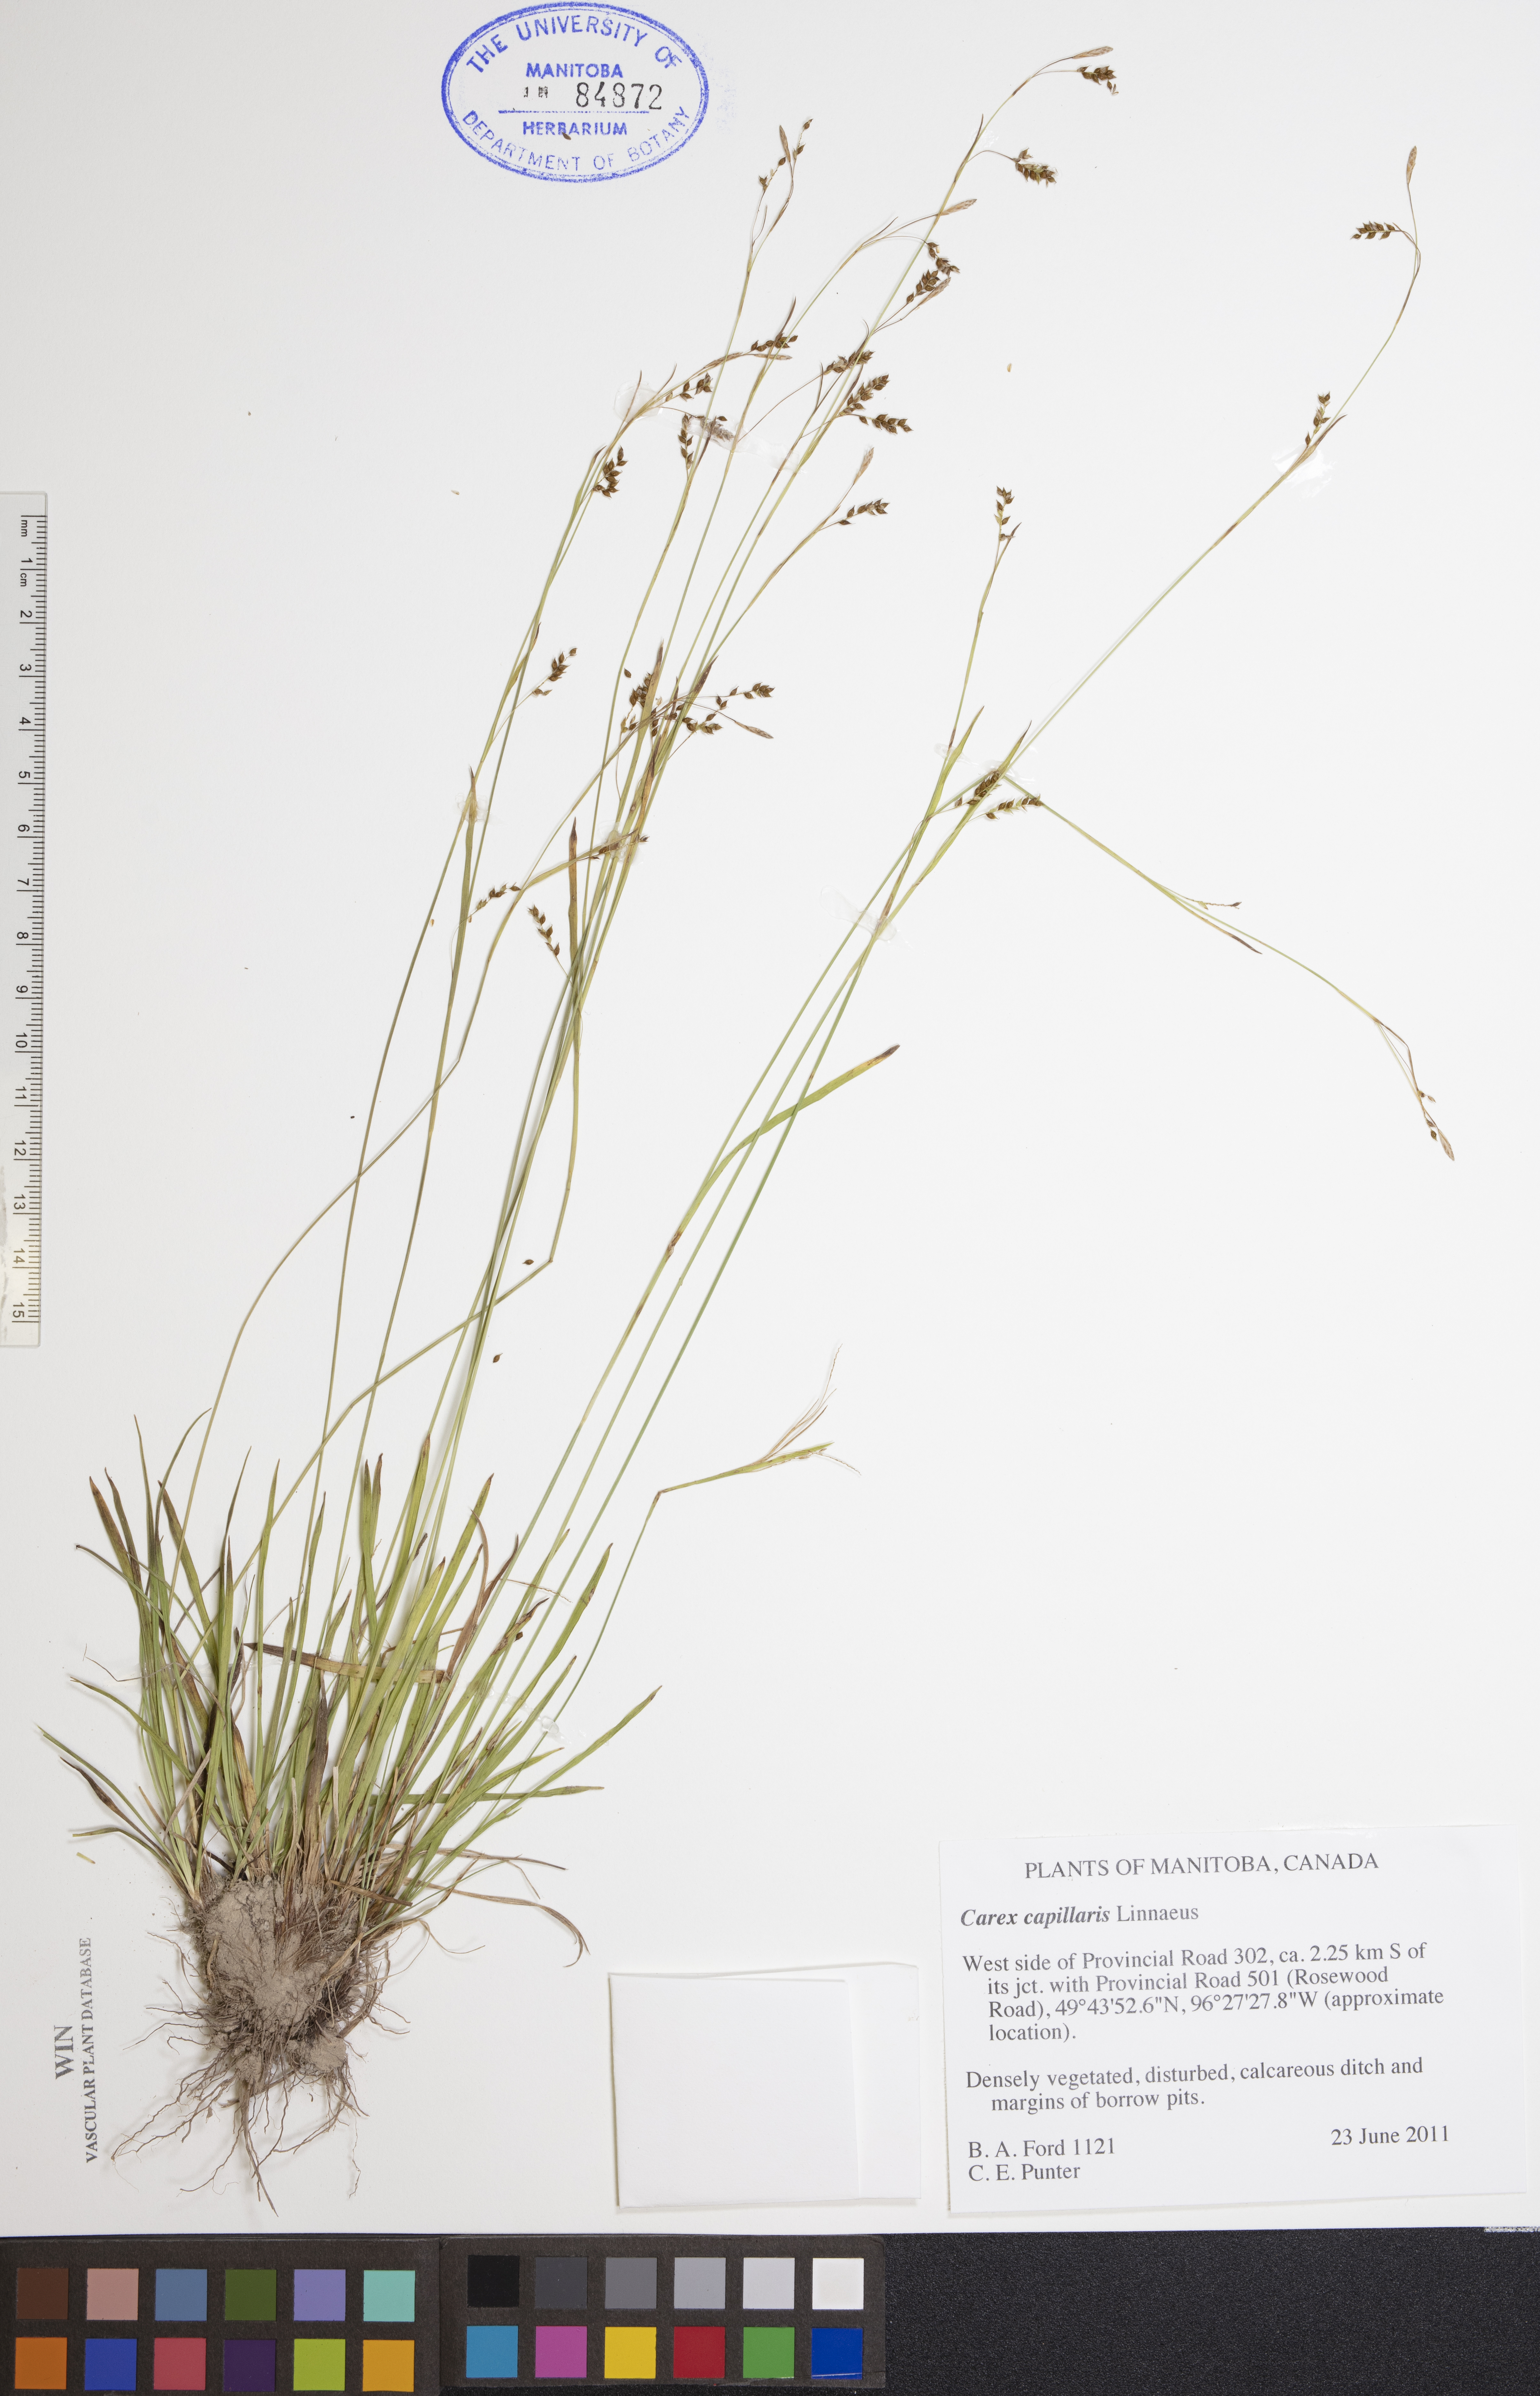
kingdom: Plantae
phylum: Tracheophyta
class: Liliopsida
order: Poales
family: Cyperaceae
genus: Carex
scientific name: Carex capillaris
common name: Hair sedge
